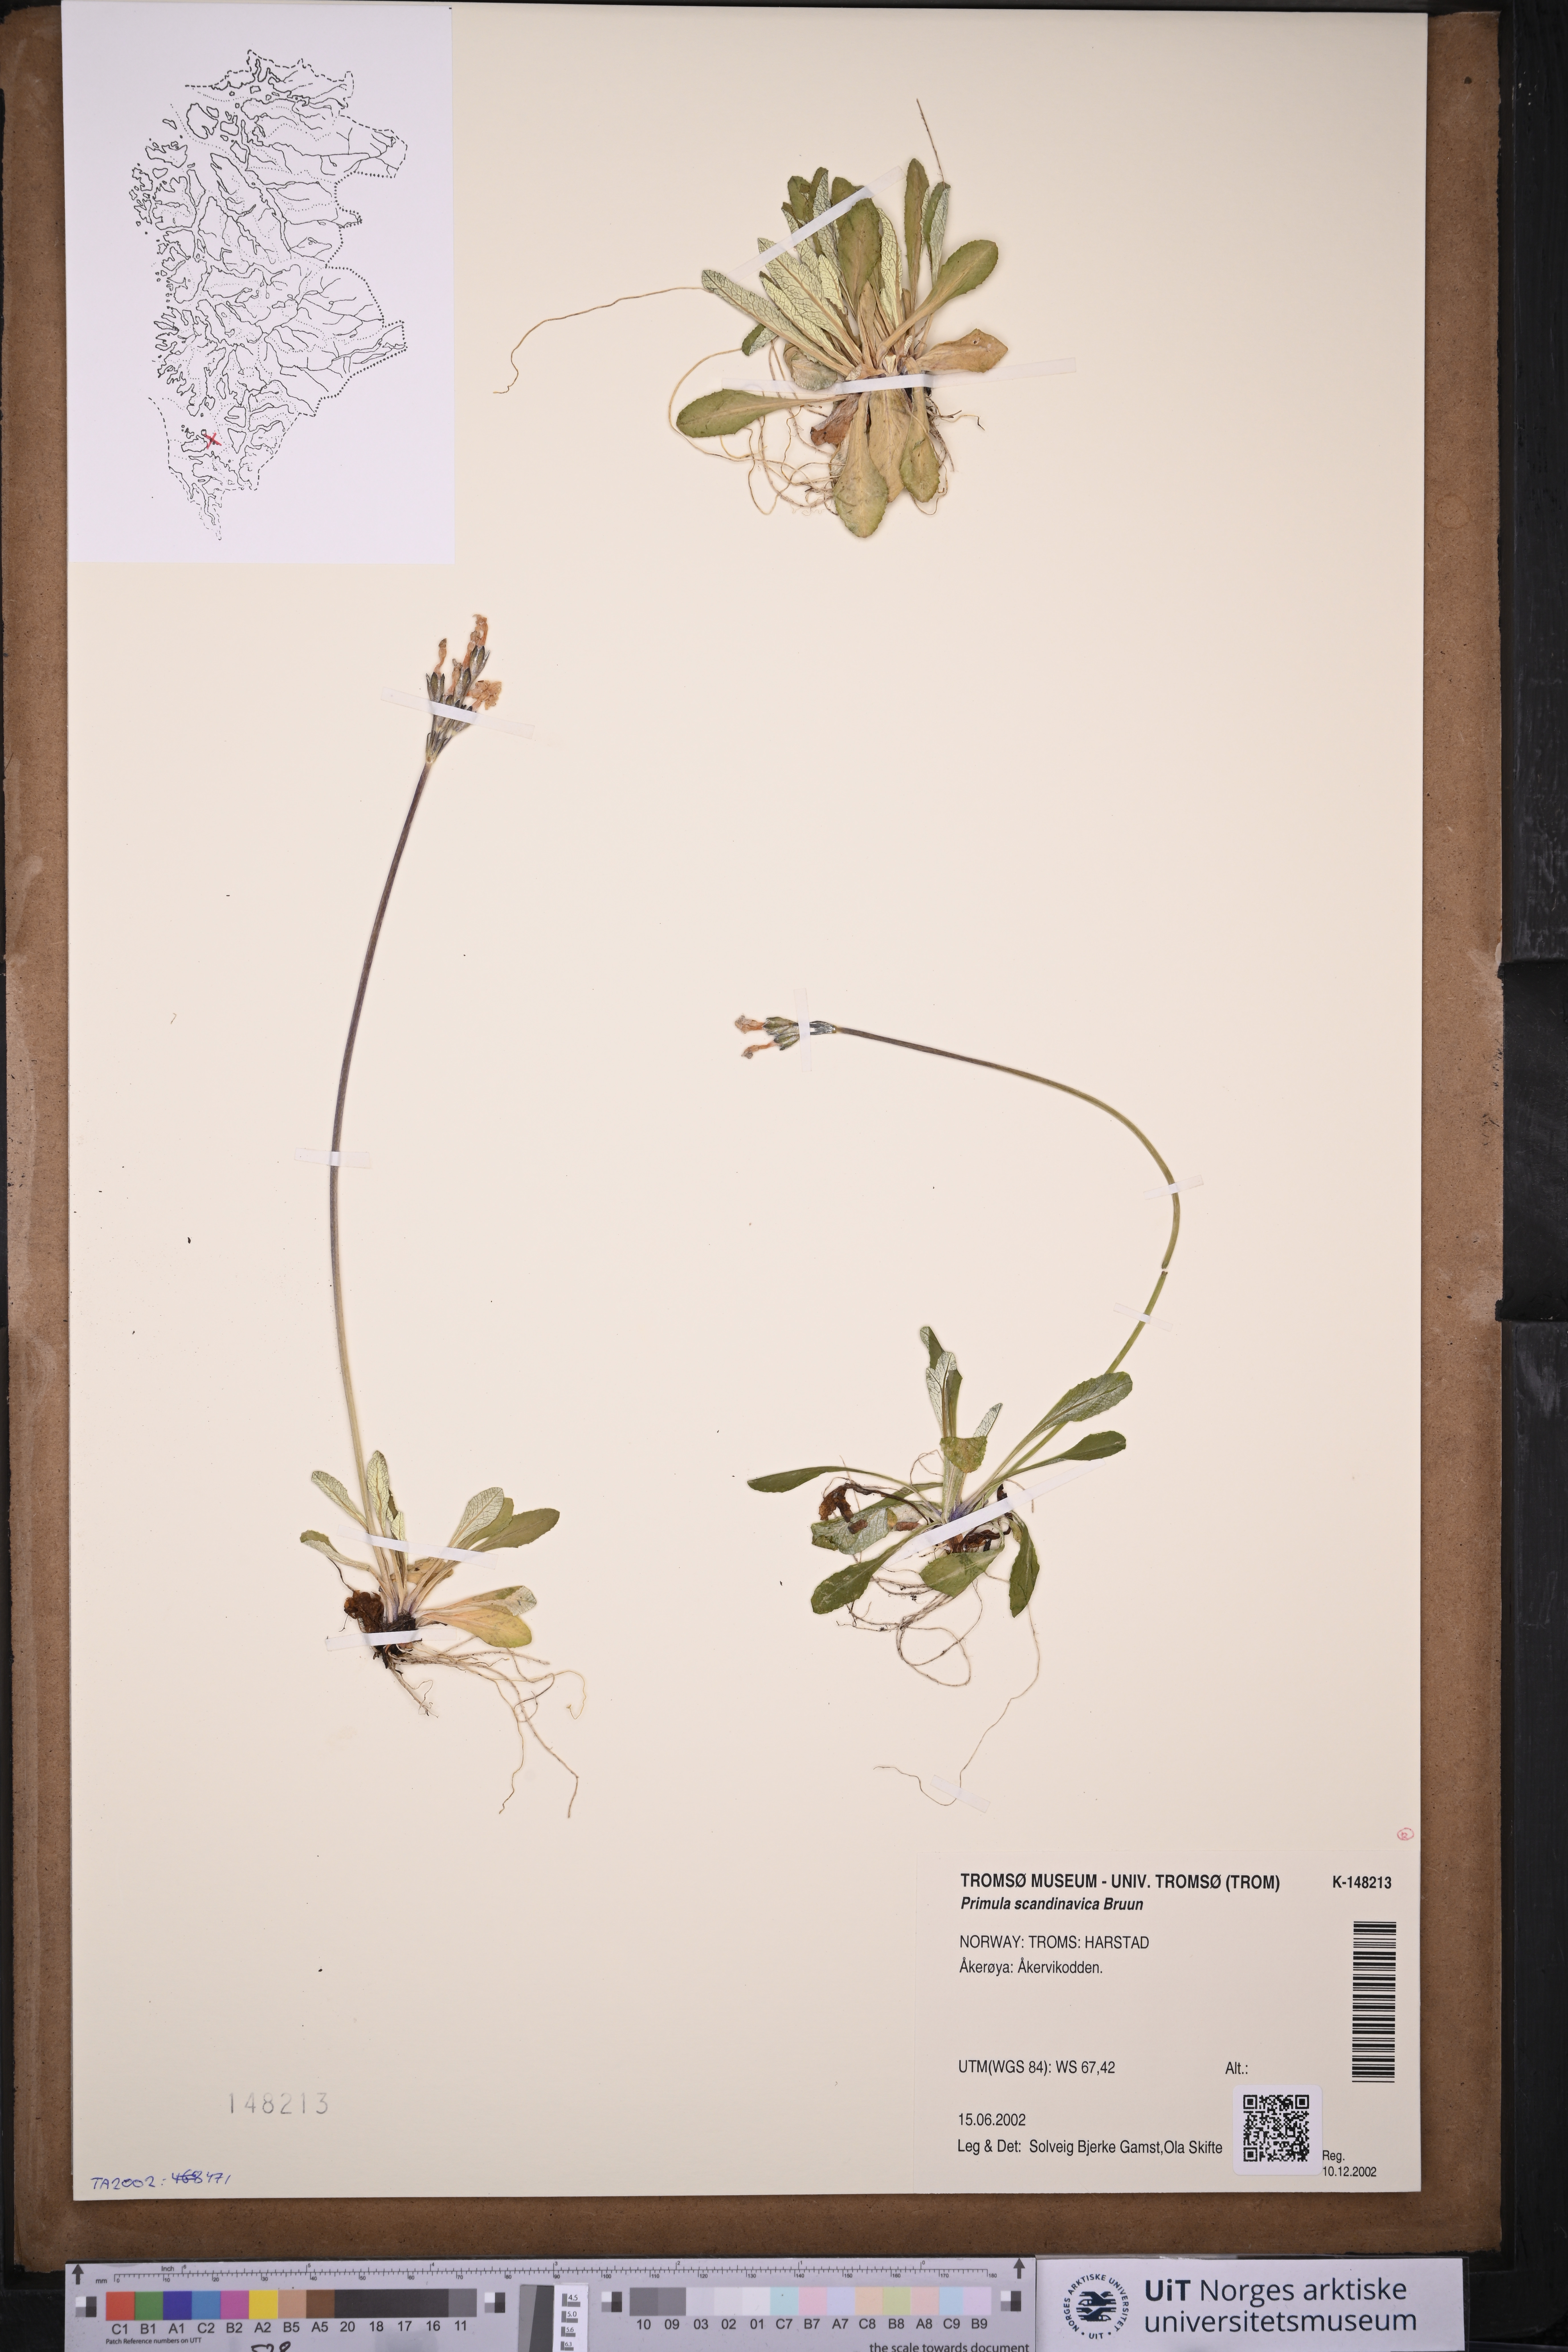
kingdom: Plantae
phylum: Tracheophyta
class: Magnoliopsida
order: Ericales
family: Primulaceae
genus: Primula
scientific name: Primula scandinavica
